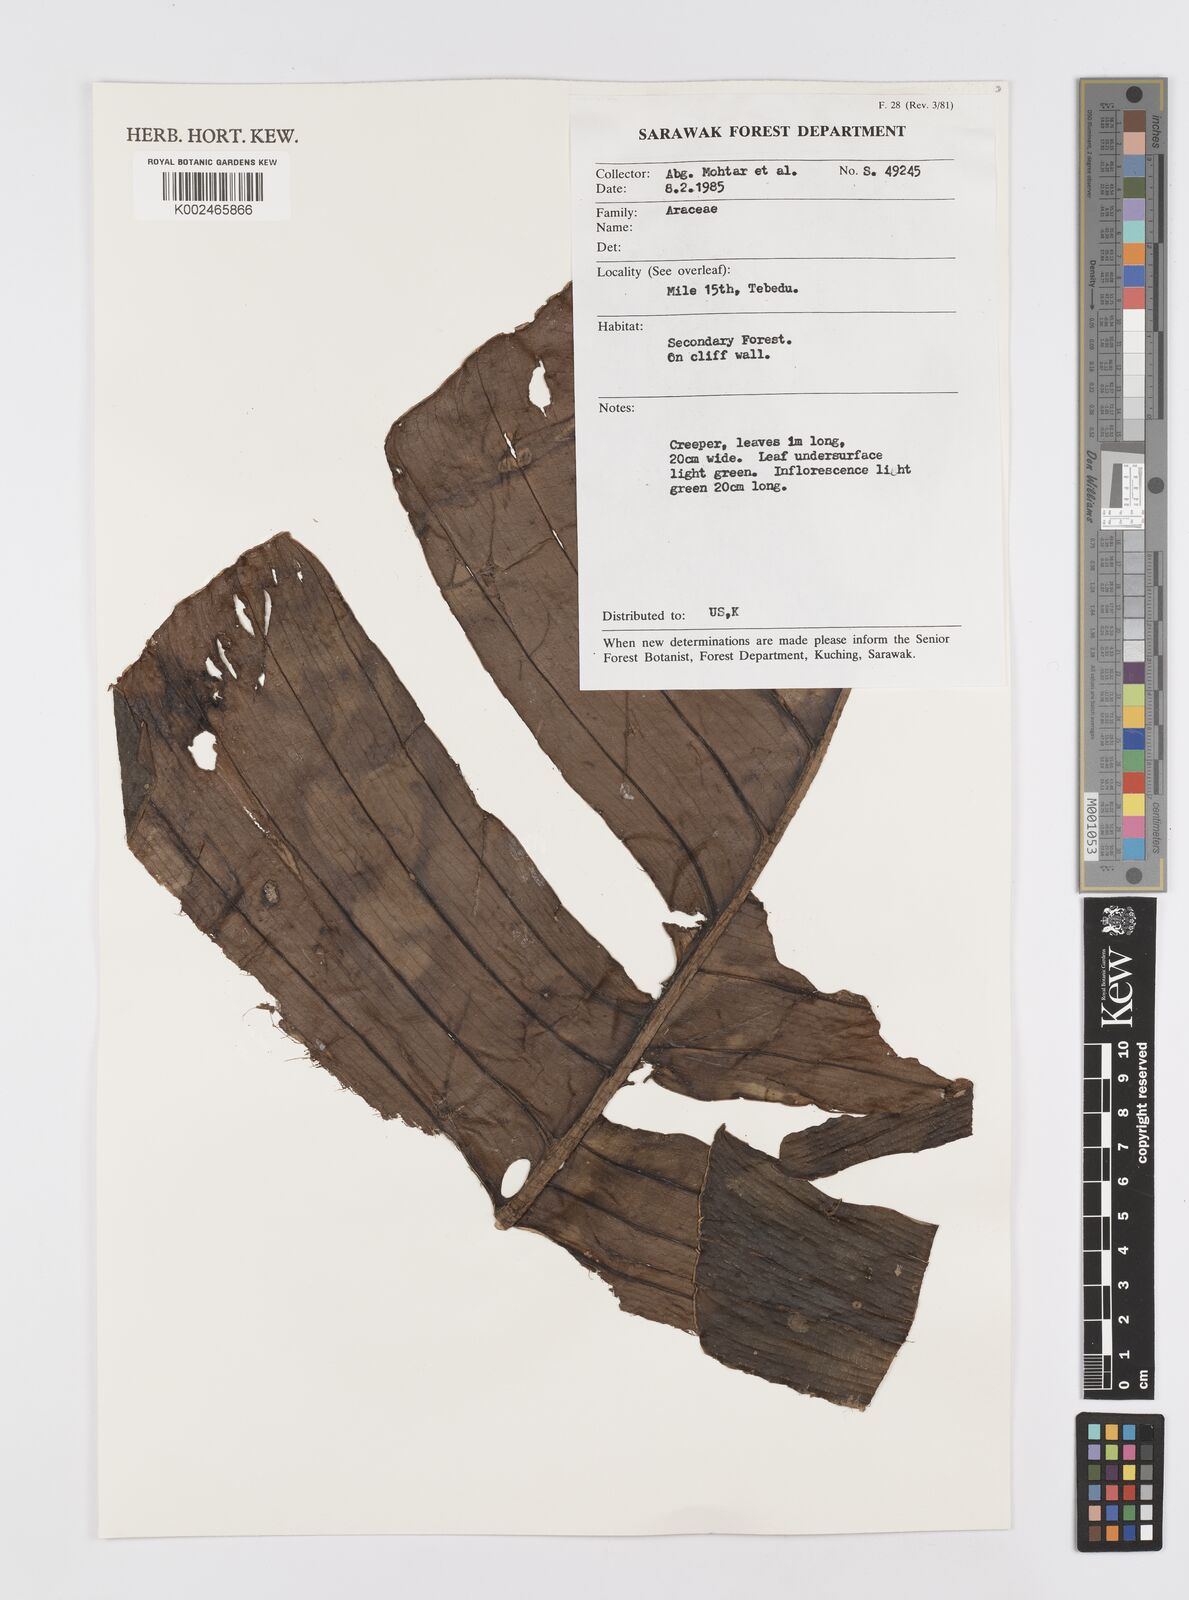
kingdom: Plantae
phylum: Tracheophyta
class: Liliopsida
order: Alismatales
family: Araceae
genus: Rhaphidophora
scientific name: Rhaphidophora korthalsii
